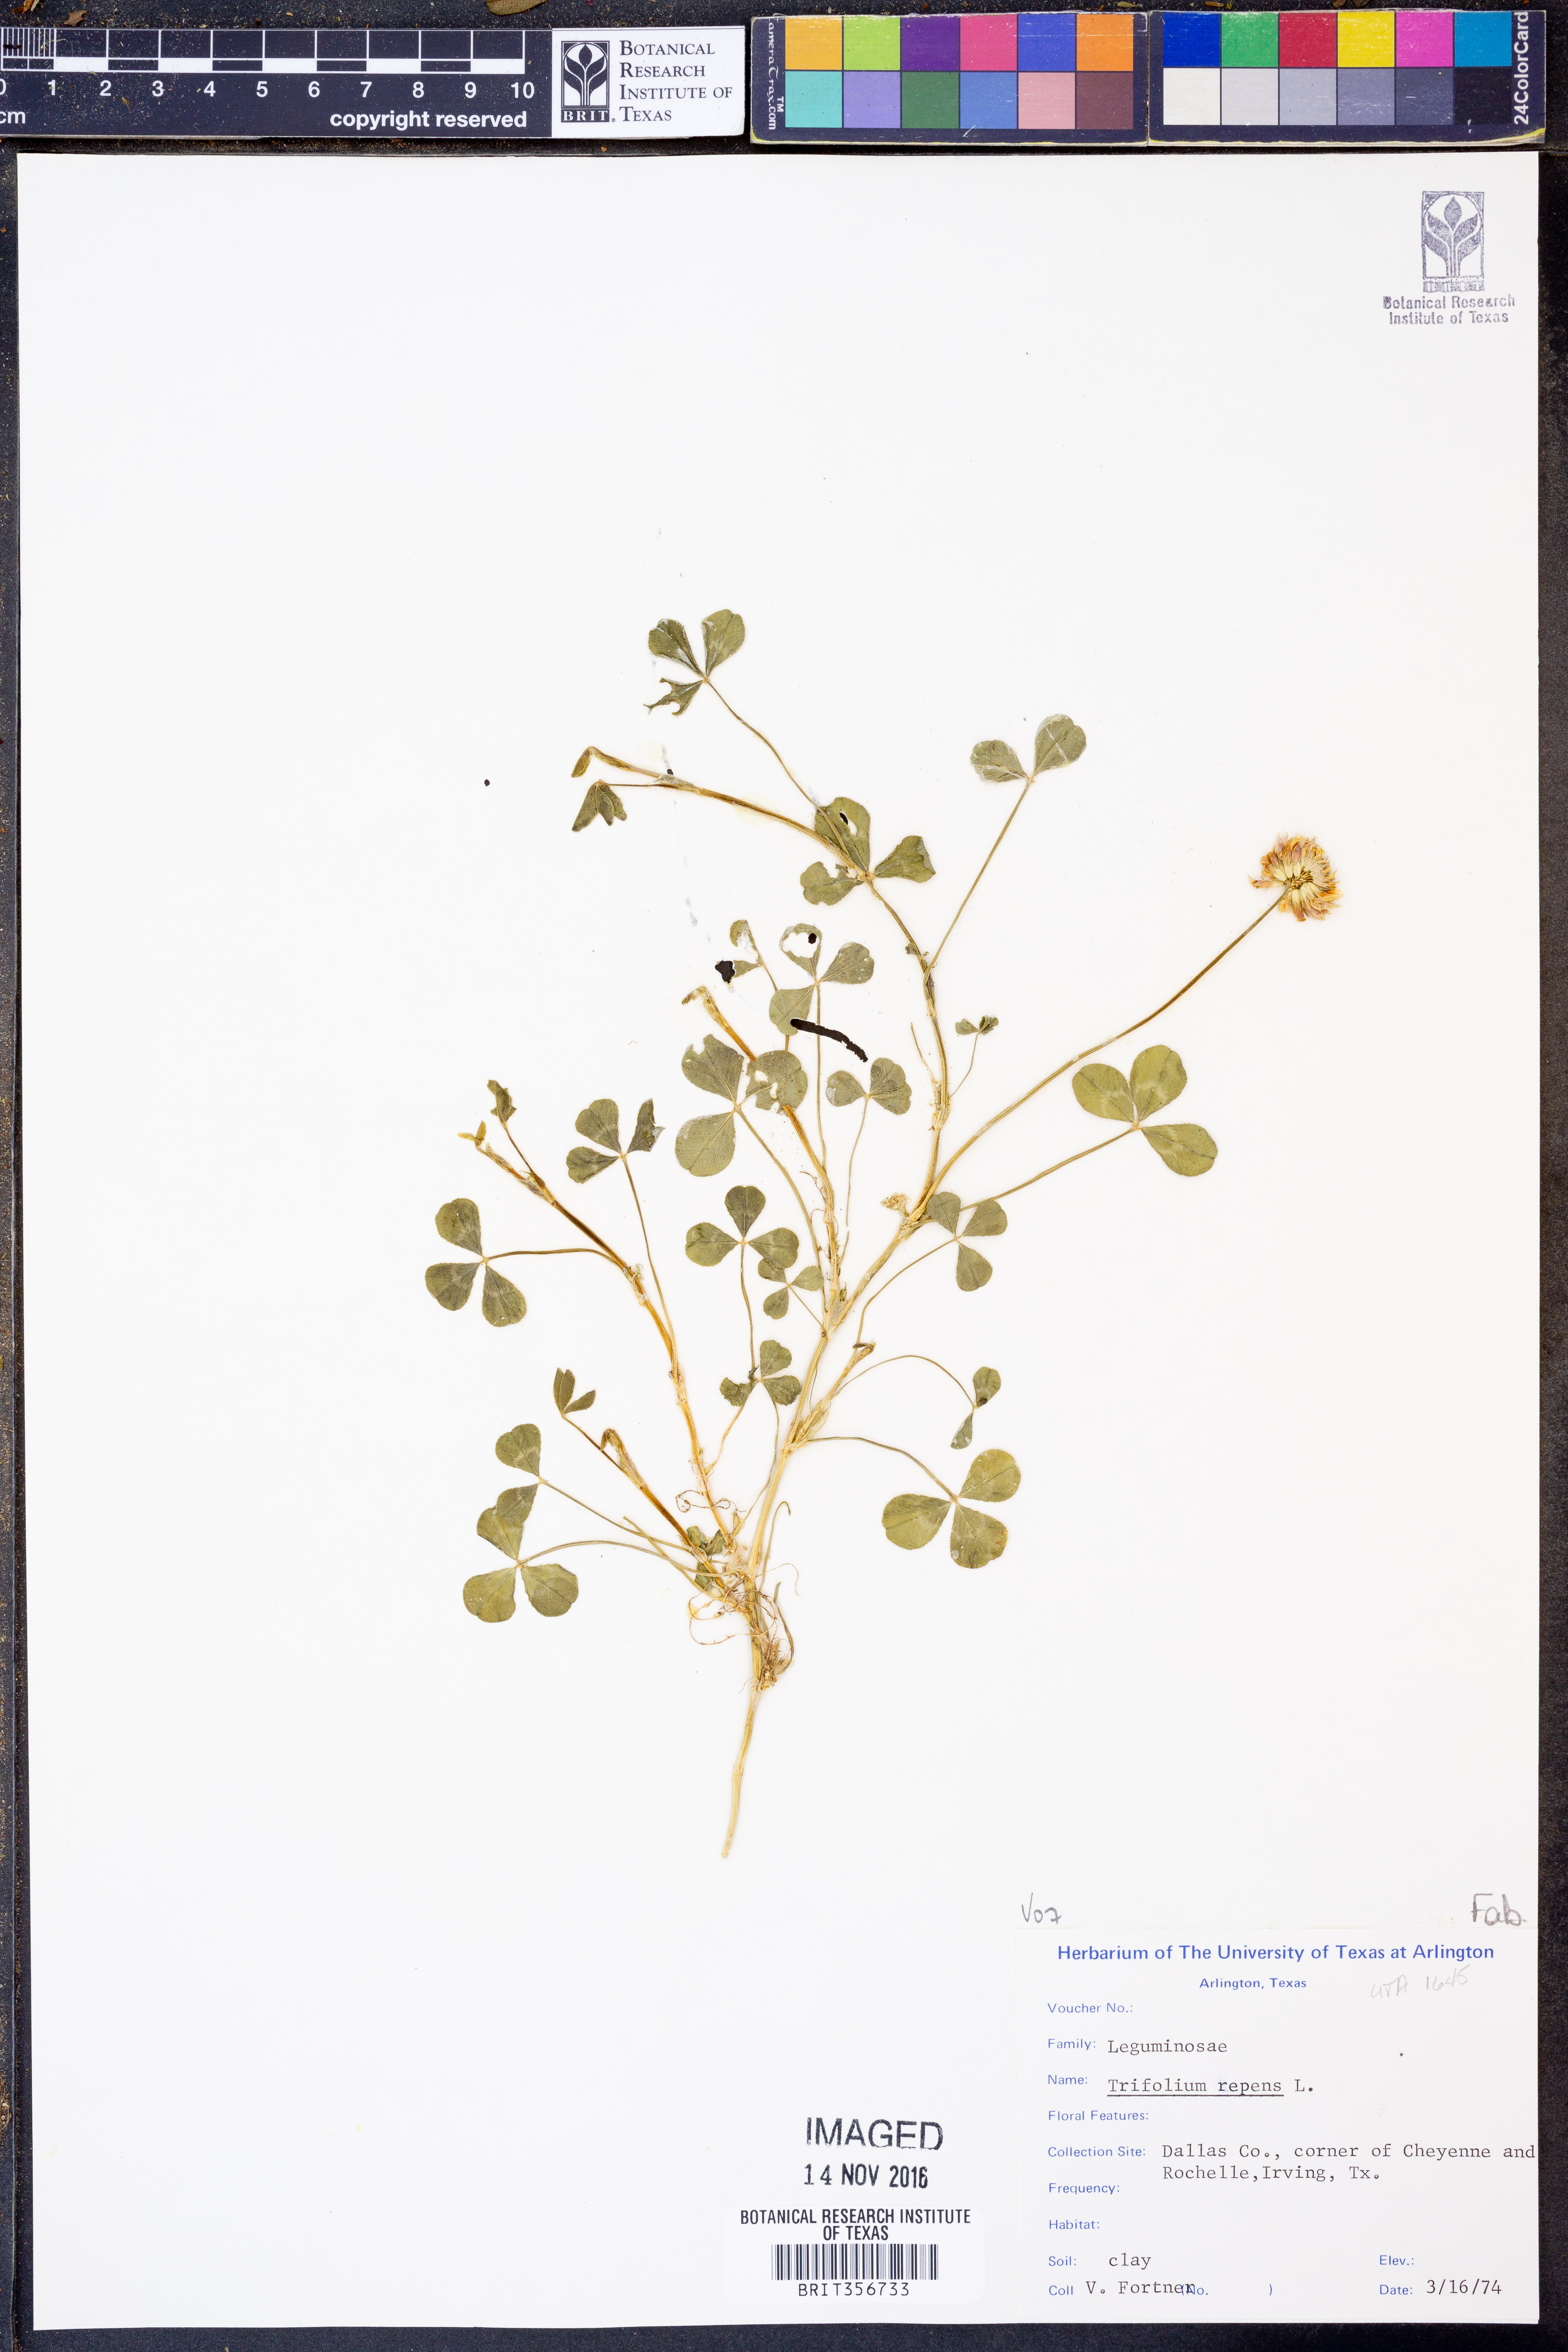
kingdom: Plantae
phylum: Tracheophyta
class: Magnoliopsida
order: Fabales
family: Fabaceae
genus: Trifolium
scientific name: Trifolium repens
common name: White clover
